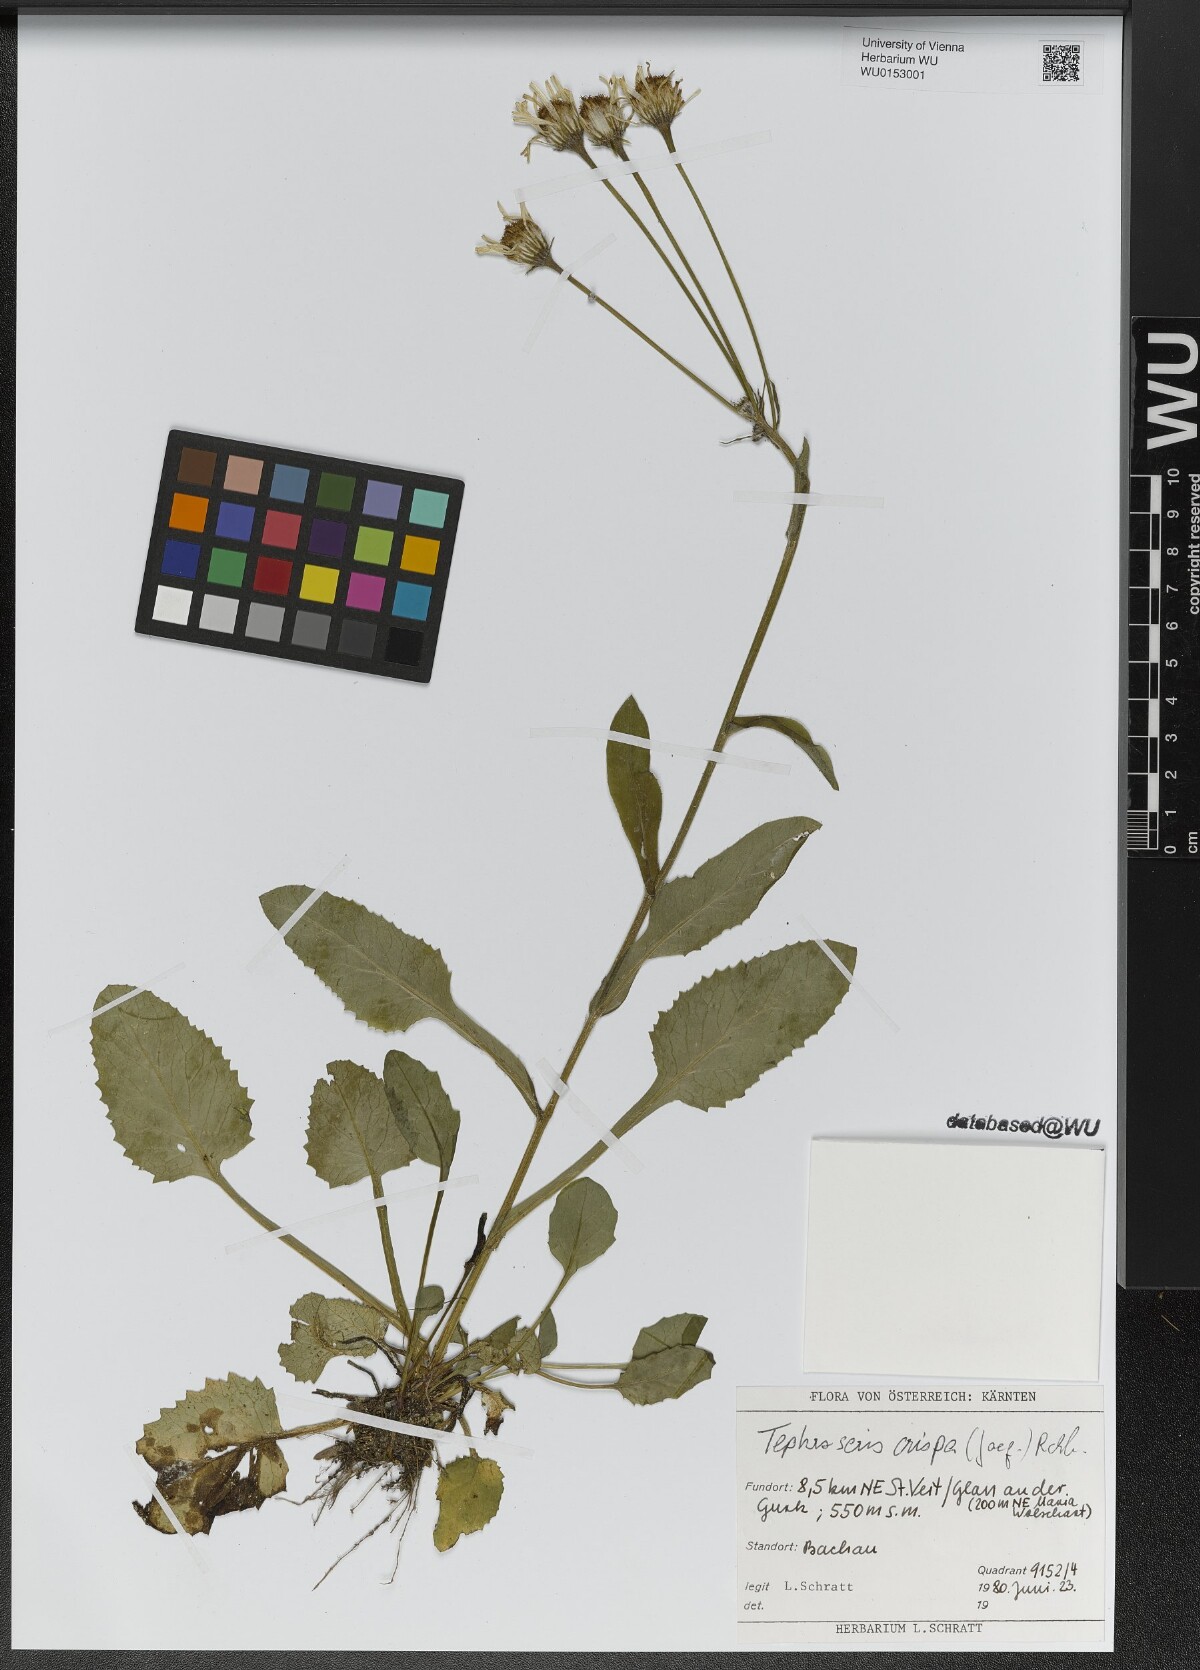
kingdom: Plantae
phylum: Tracheophyta
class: Magnoliopsida
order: Asterales
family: Asteraceae
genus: Tephroseris
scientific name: Tephroseris crispa
